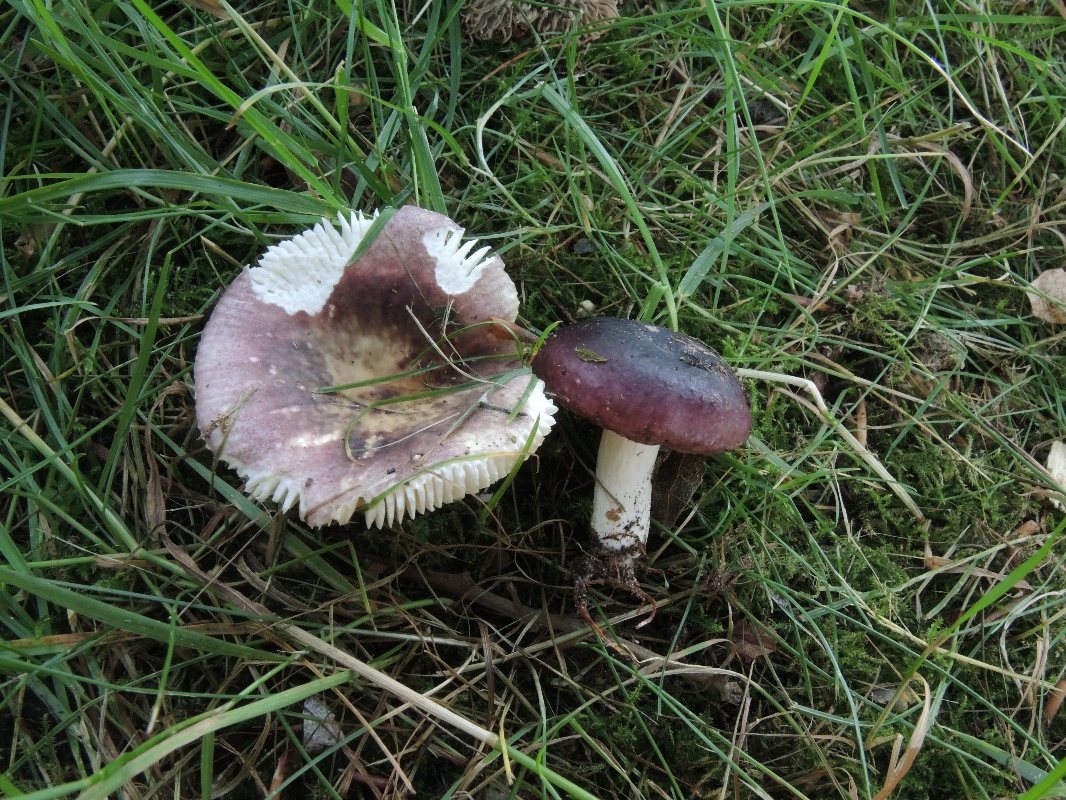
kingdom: Fungi
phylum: Basidiomycota
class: Agaricomycetes
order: Russulales
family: Russulaceae
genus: Russula
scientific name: Russula fragilis
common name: Fragile brittlegill
